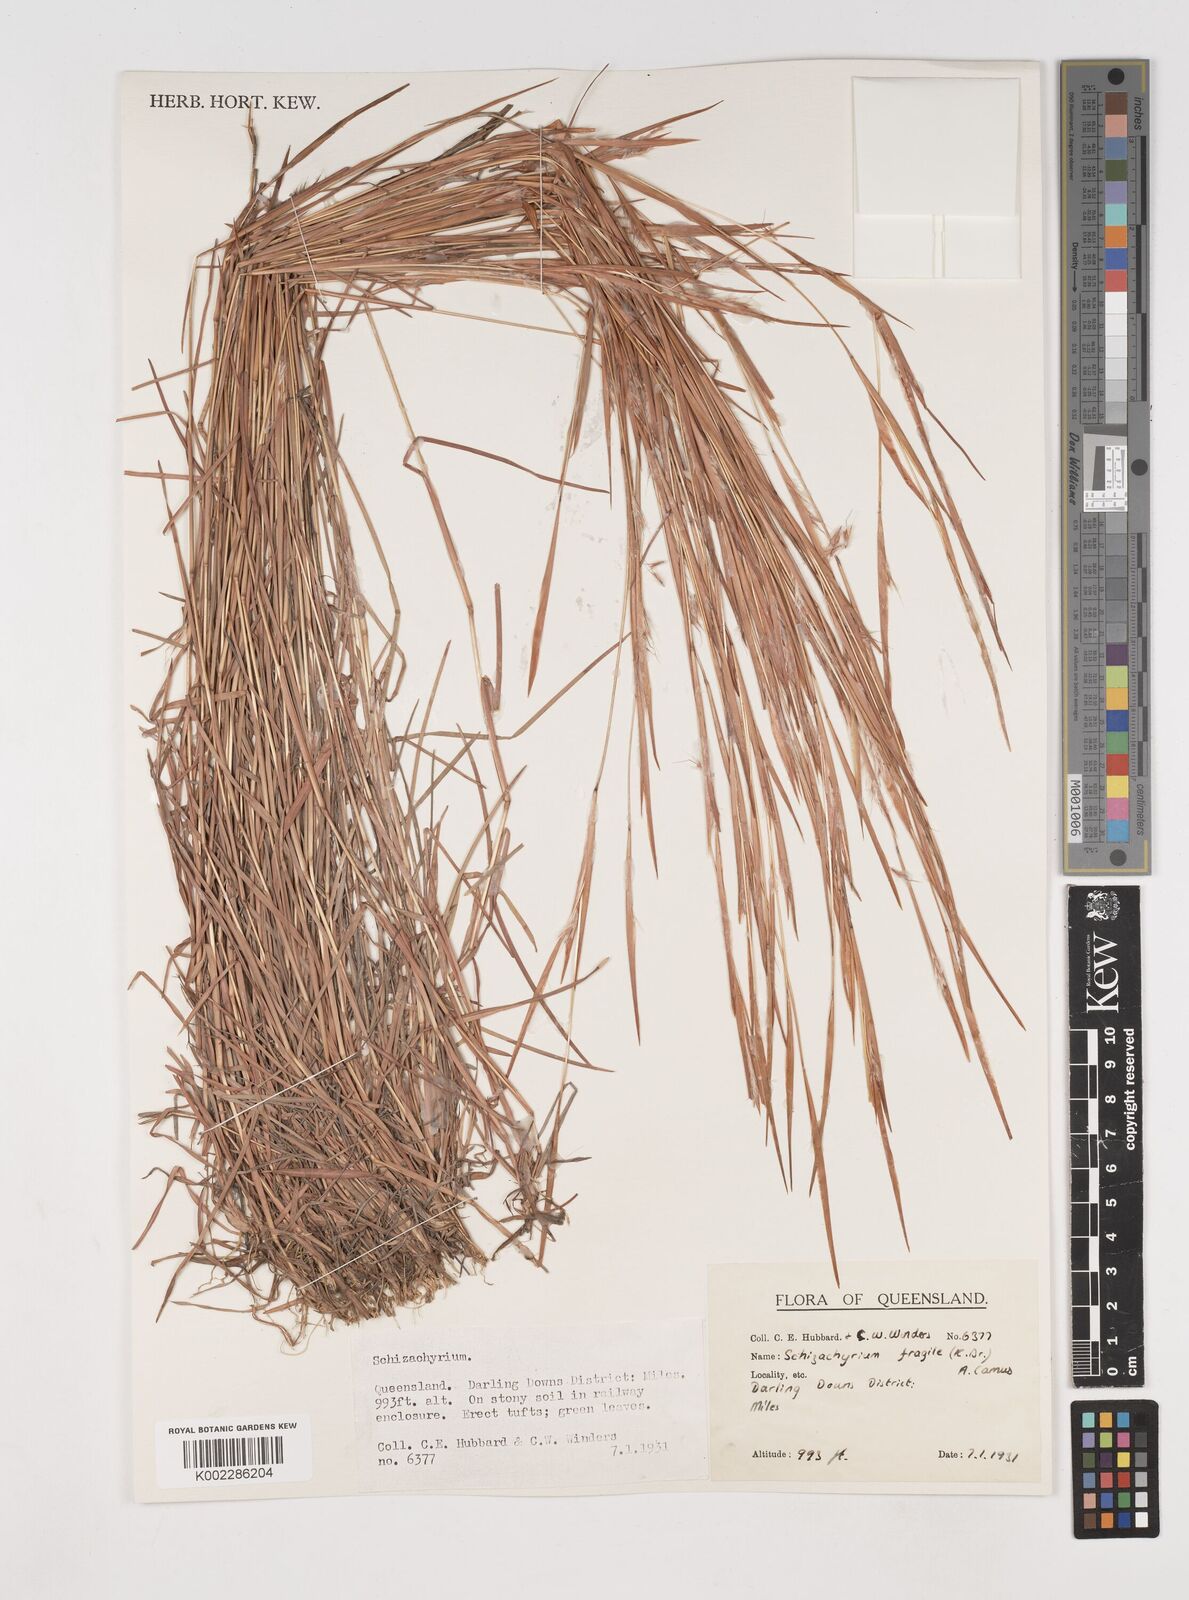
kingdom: Plantae
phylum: Tracheophyta
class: Liliopsida
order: Poales
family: Poaceae
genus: Schizachyrium
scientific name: Schizachyrium fragile
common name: Red spathe grass
